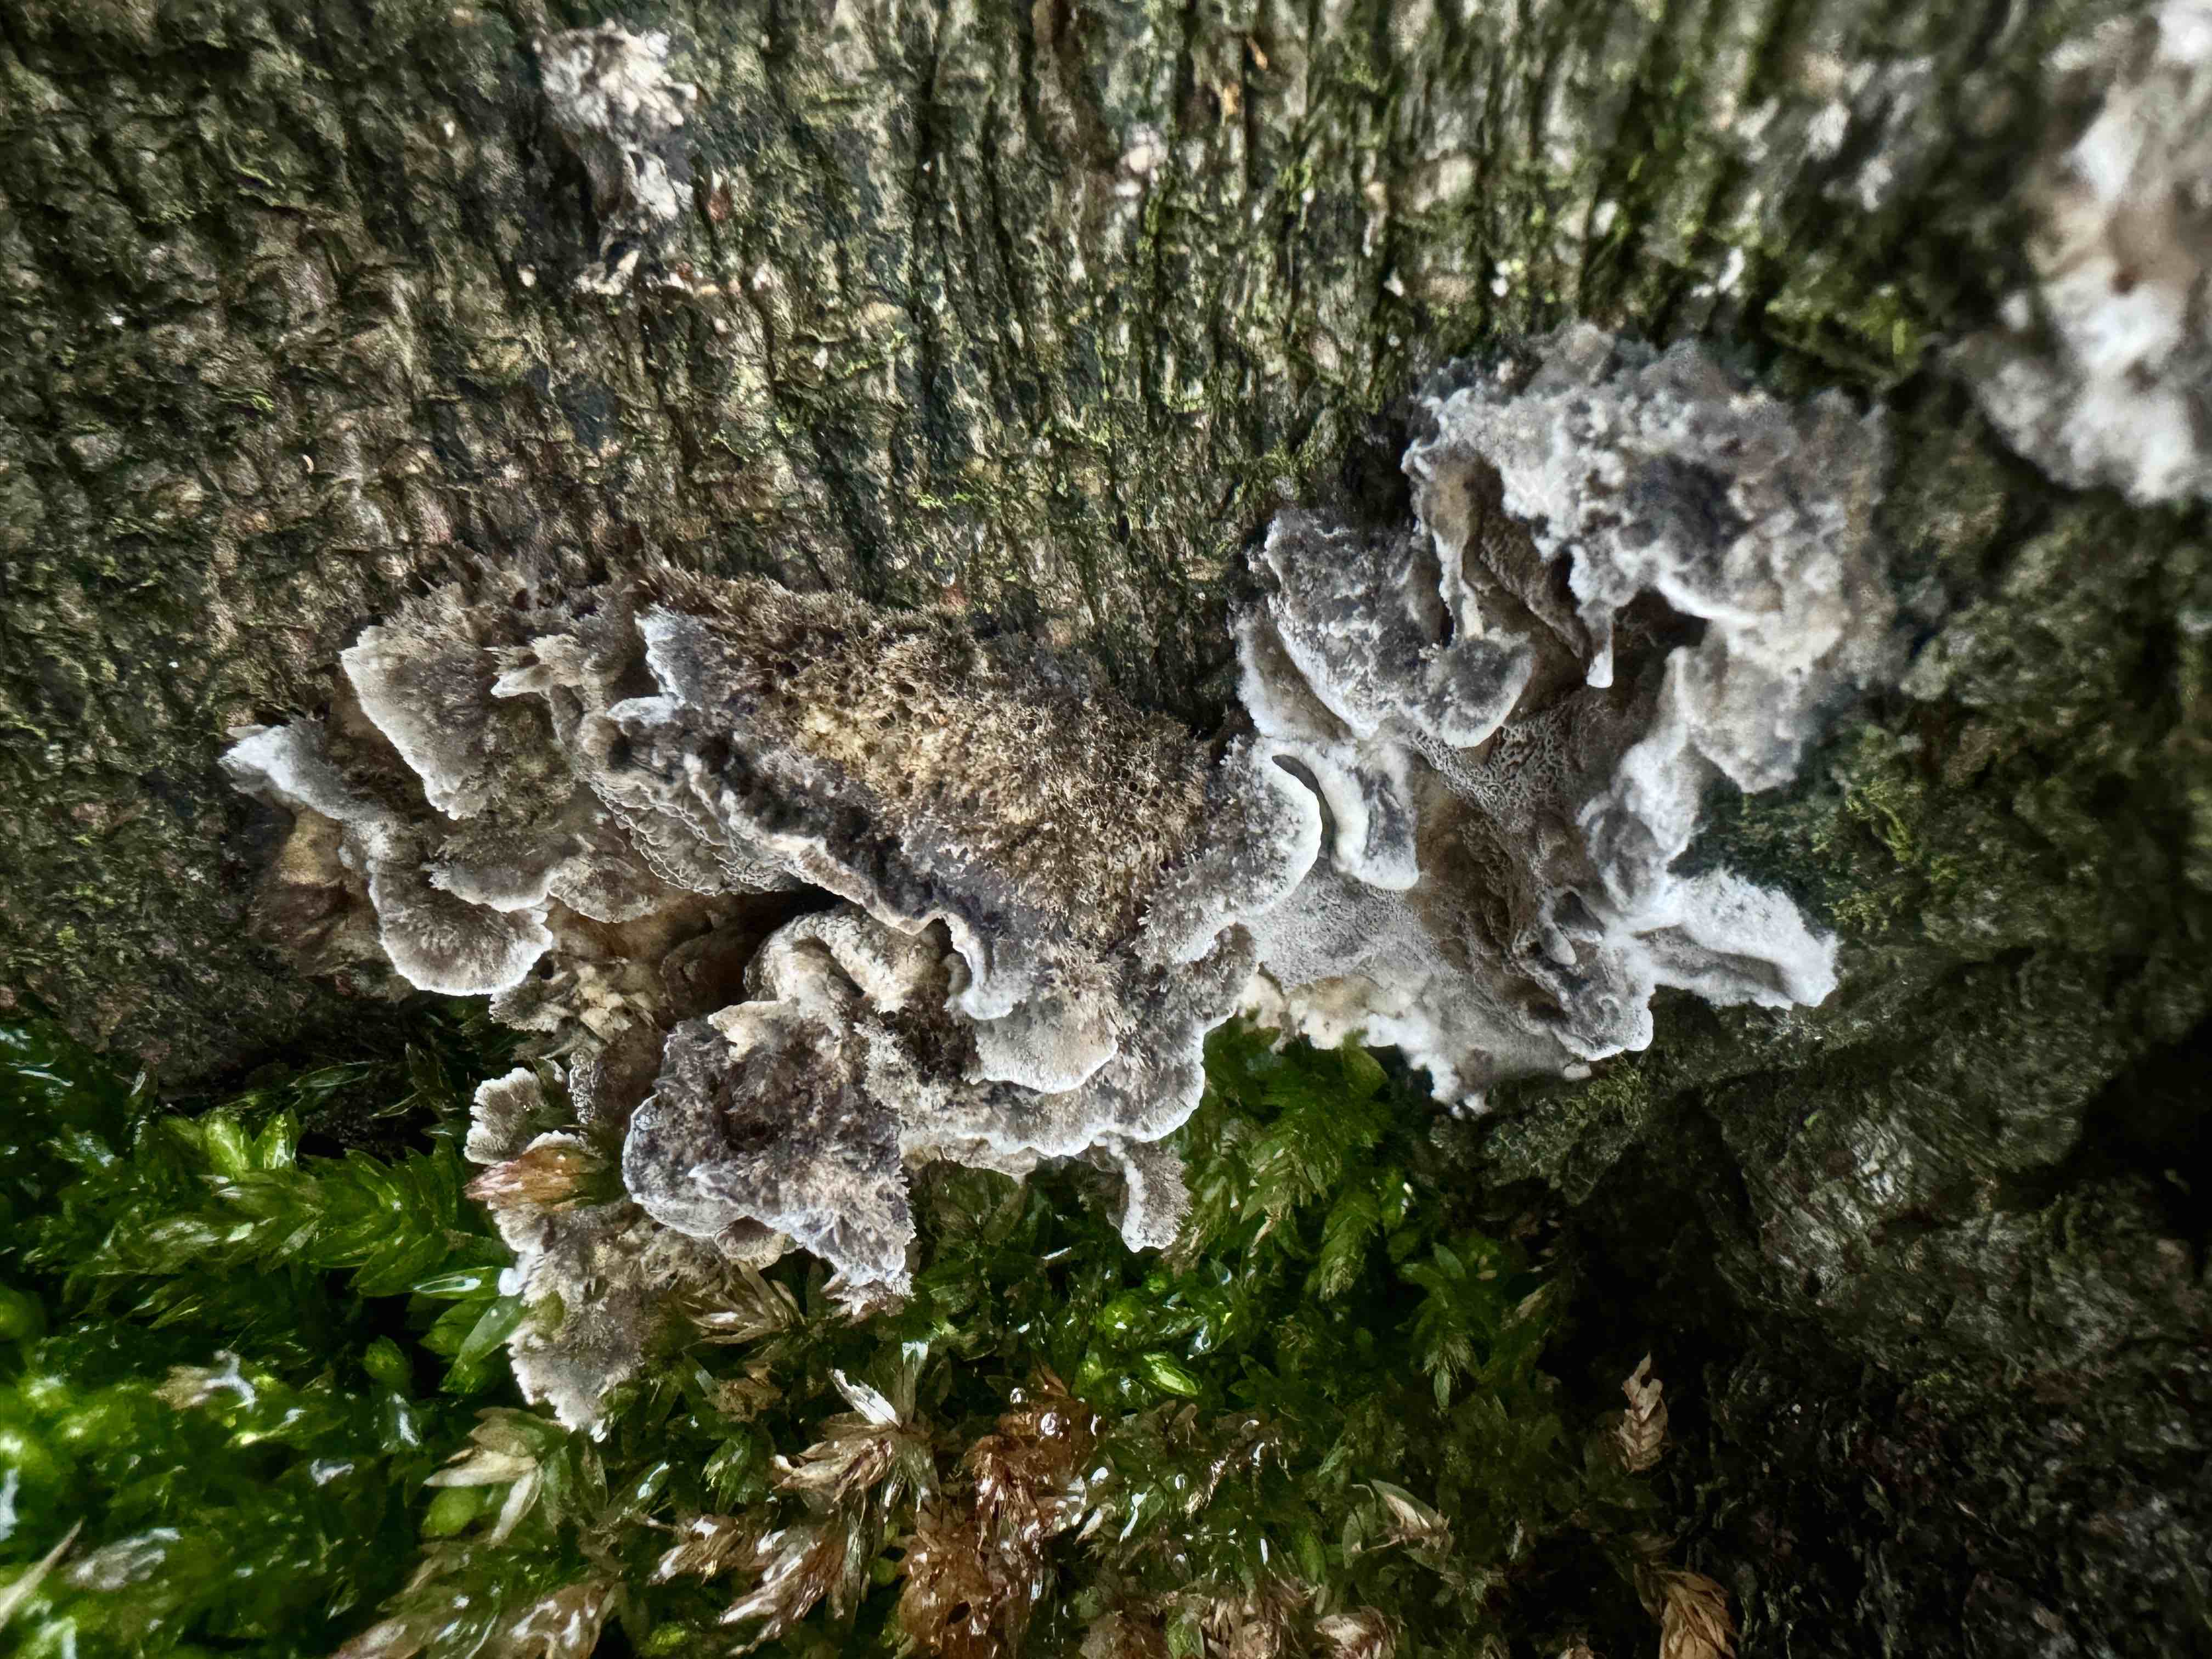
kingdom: Fungi
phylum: Basidiomycota
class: Agaricomycetes
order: Polyporales
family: Phanerochaetaceae
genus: Bjerkandera
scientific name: Bjerkandera adusta
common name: sveden sodporesvamp
